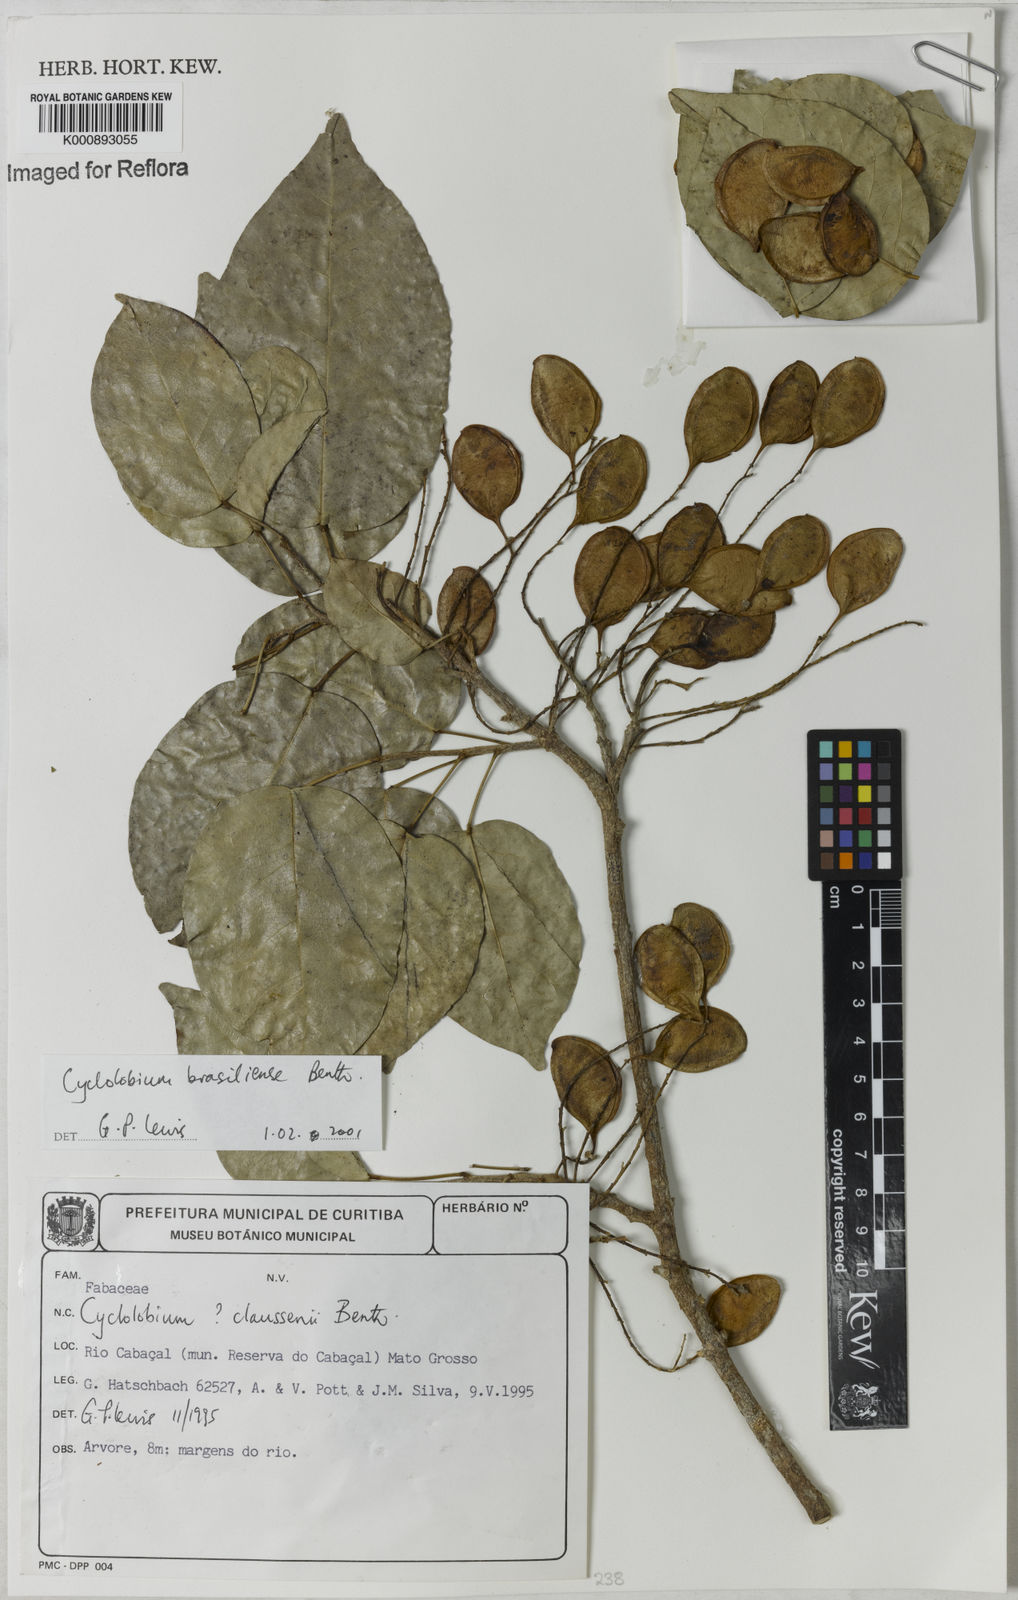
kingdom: Plantae
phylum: Tracheophyta
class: Magnoliopsida
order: Fabales
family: Fabaceae
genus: Cyclolobium
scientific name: Cyclolobium brasiliense
